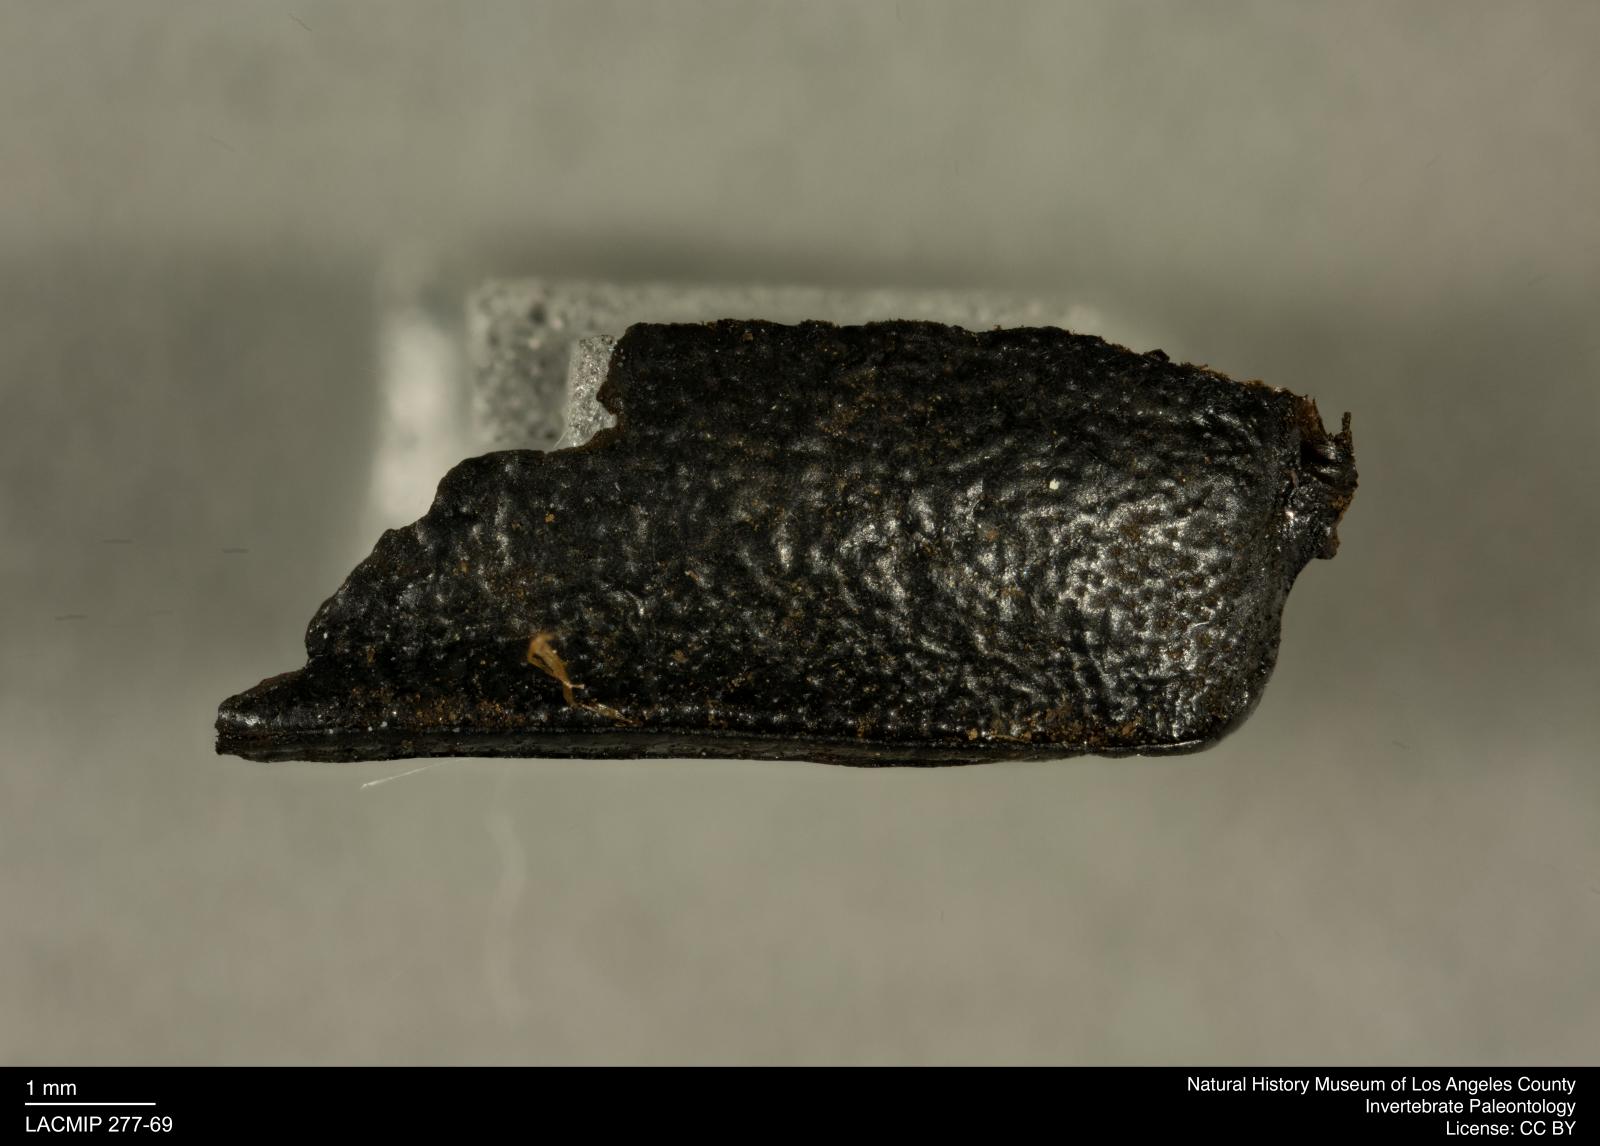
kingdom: Animalia
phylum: Arthropoda
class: Insecta
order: Coleoptera
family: Tenebrionidae
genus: Coniontis
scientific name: Coniontis abdominalis
